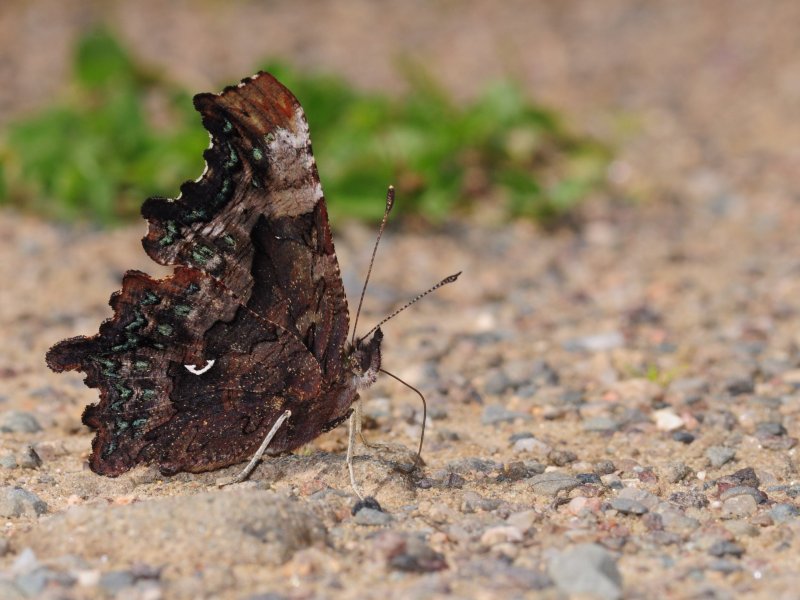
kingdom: Animalia
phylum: Arthropoda
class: Insecta
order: Lepidoptera
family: Nymphalidae
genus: Polygonia
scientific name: Polygonia faunus
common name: Green Comma
